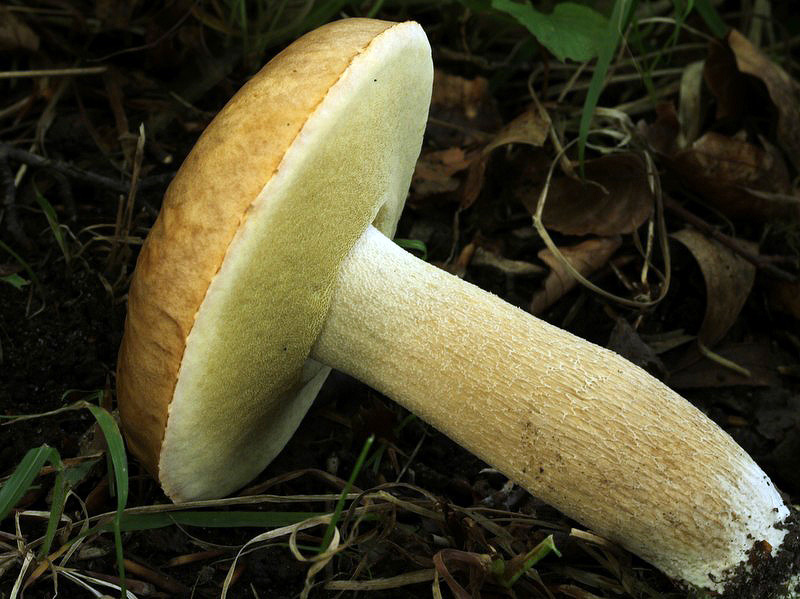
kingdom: Fungi
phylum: Basidiomycota
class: Agaricomycetes
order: Boletales
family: Boletaceae
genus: Boletus
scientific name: Boletus edulis
